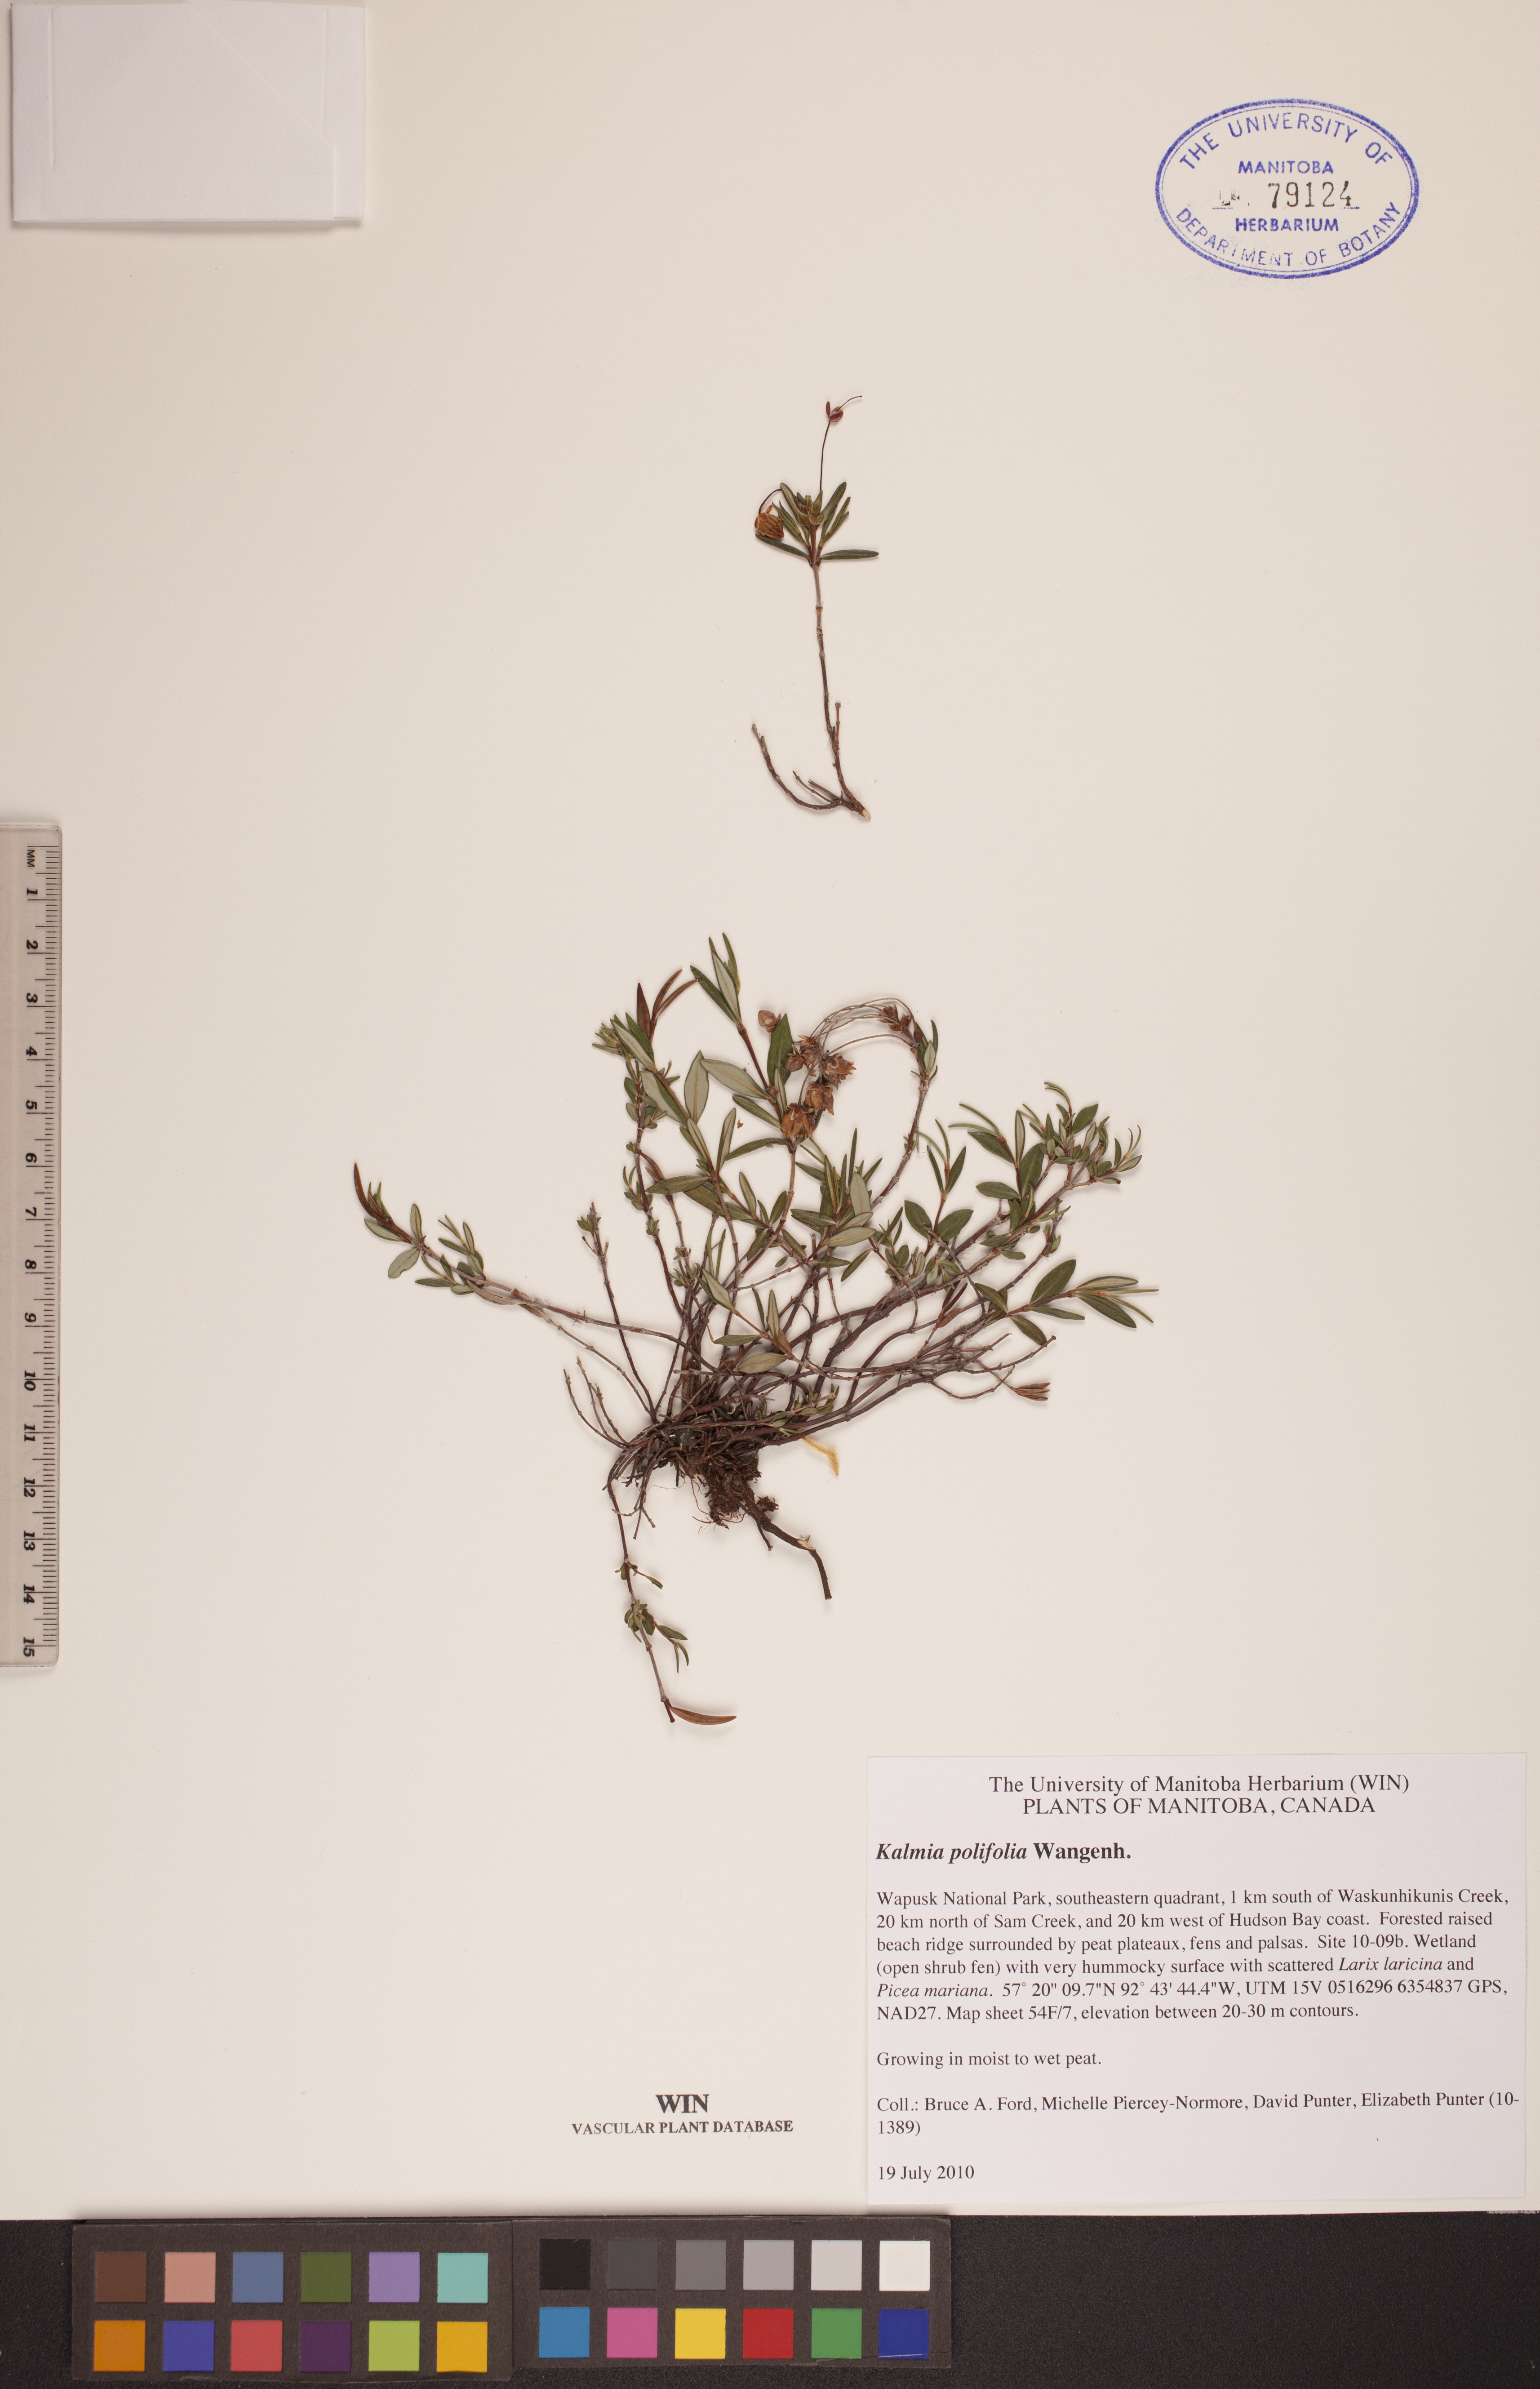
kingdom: Plantae
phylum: Tracheophyta
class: Magnoliopsida
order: Ericales
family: Ericaceae
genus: Kalmia
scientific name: Kalmia polifolia
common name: Bog-laurel
